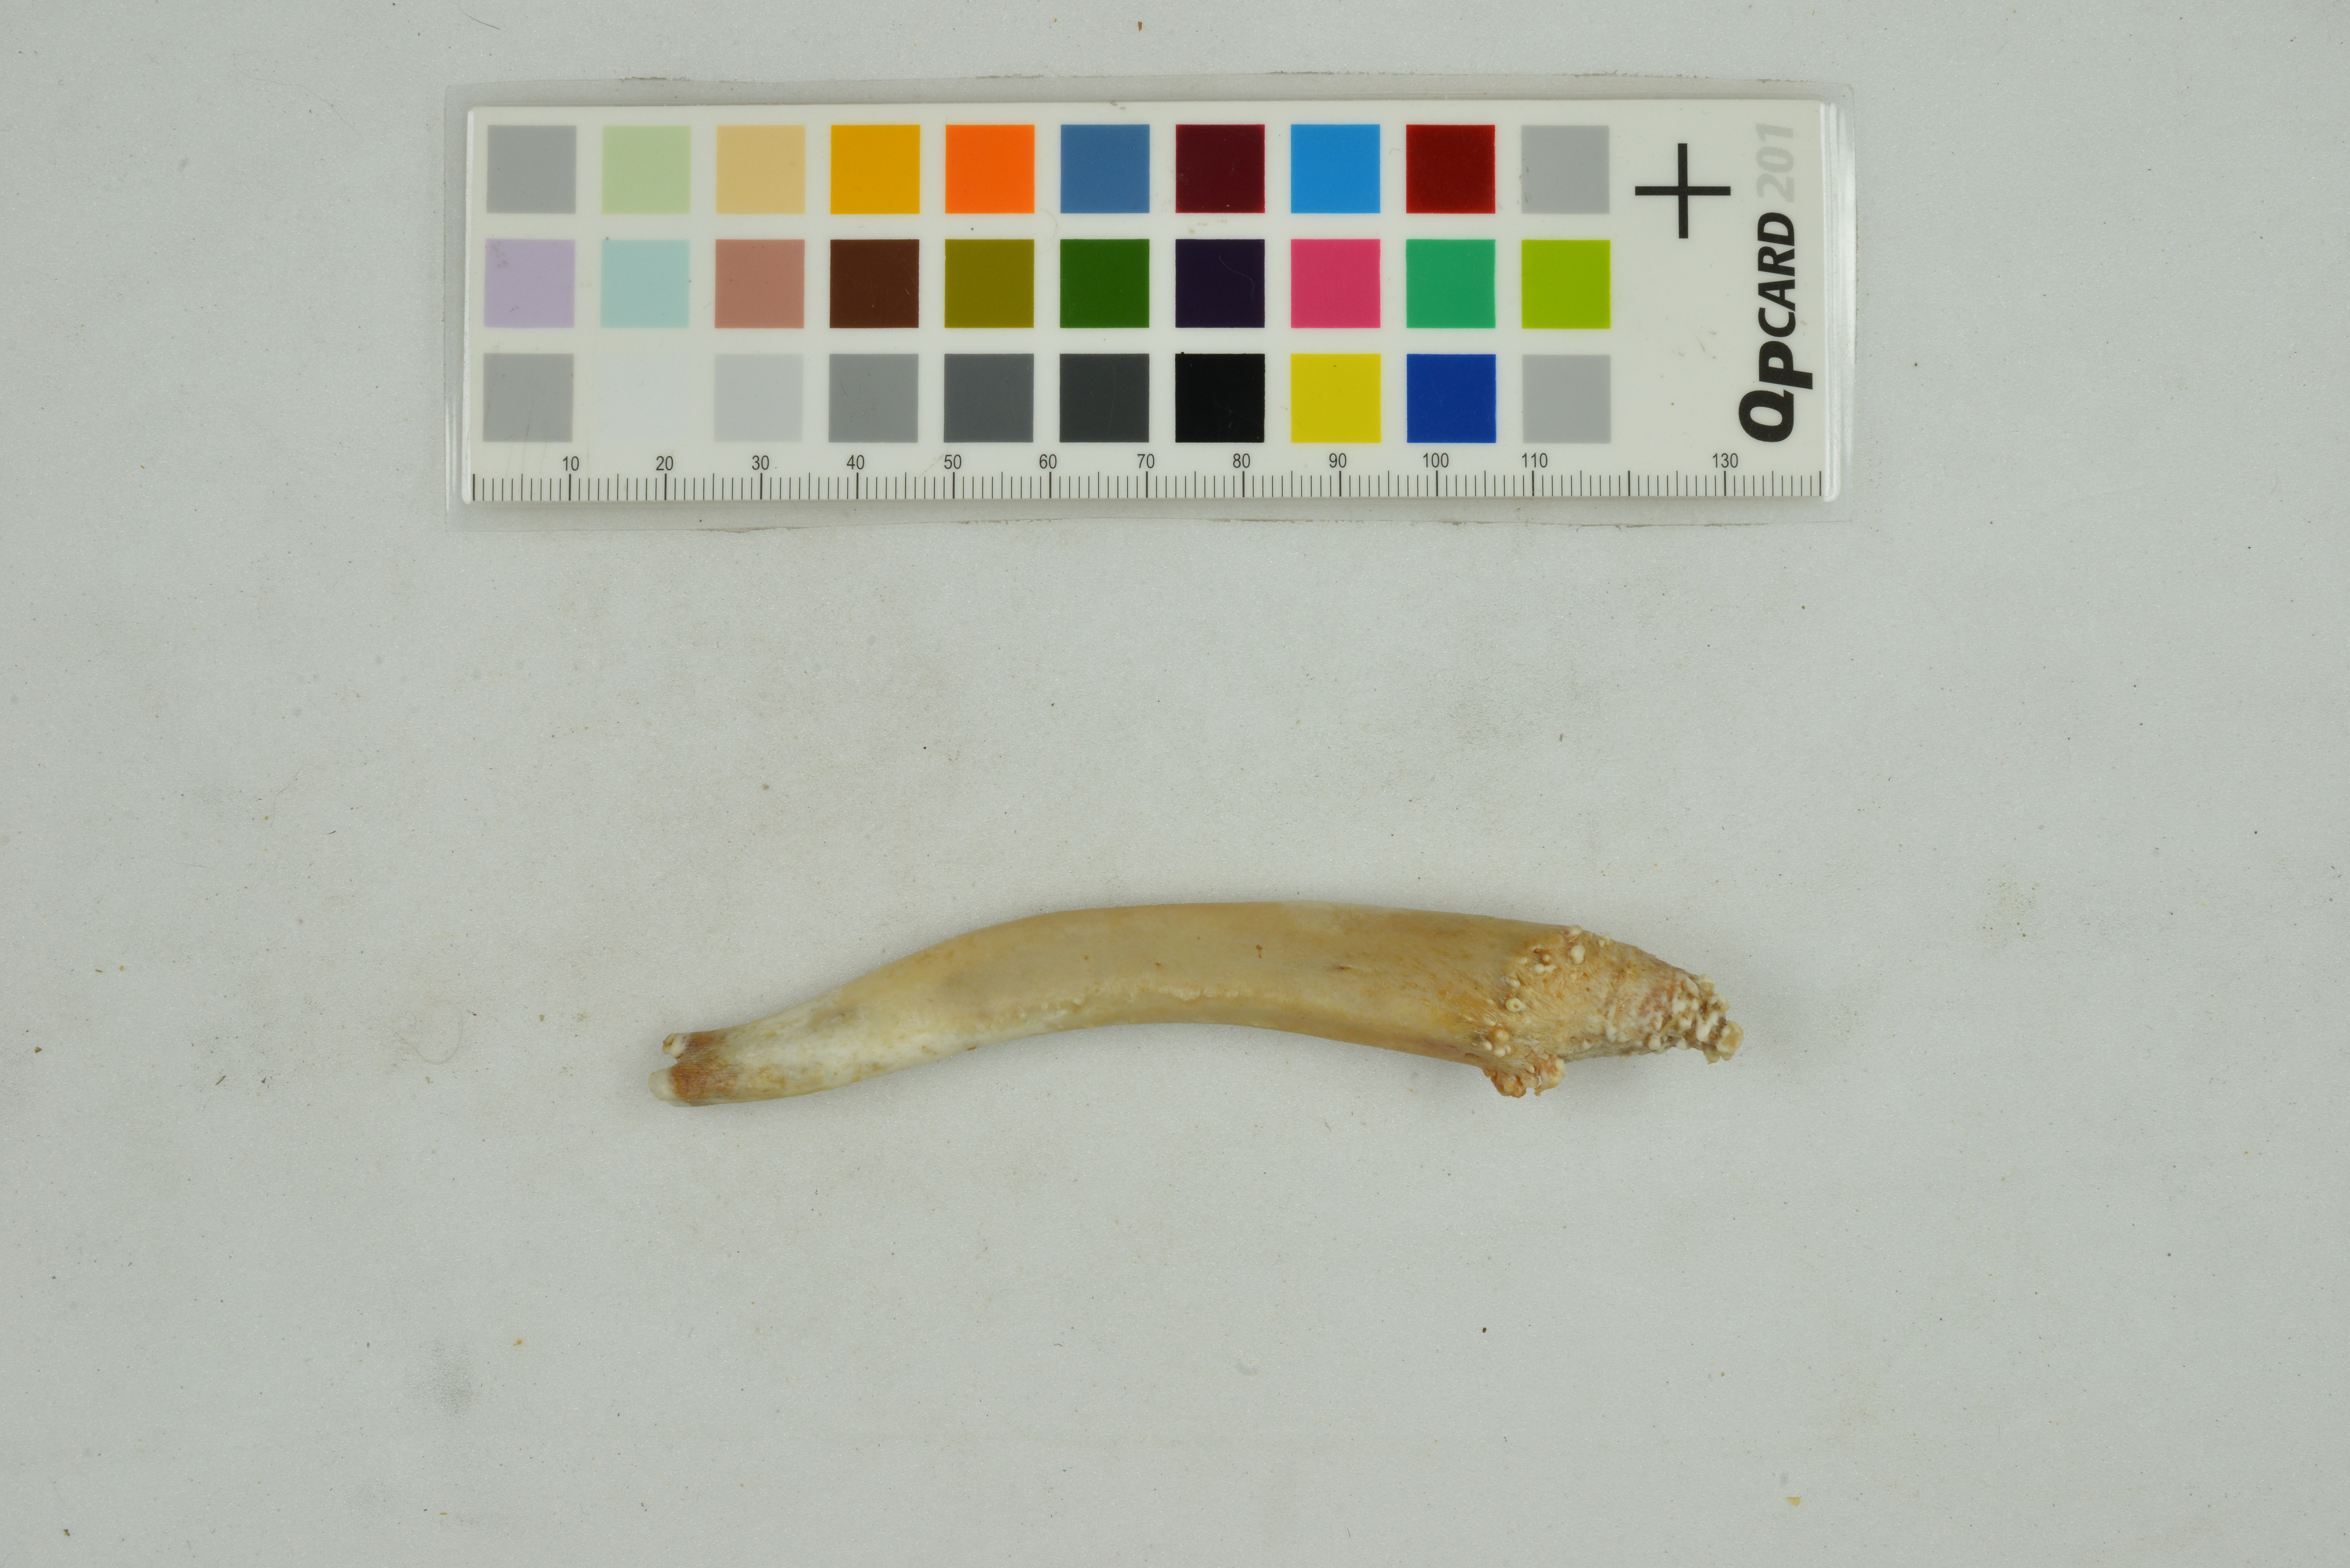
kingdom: Animalia
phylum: Chordata
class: Mammalia
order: Carnivora
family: Phocidae
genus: Pusa
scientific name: Pusa hispida
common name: Ringed seal
